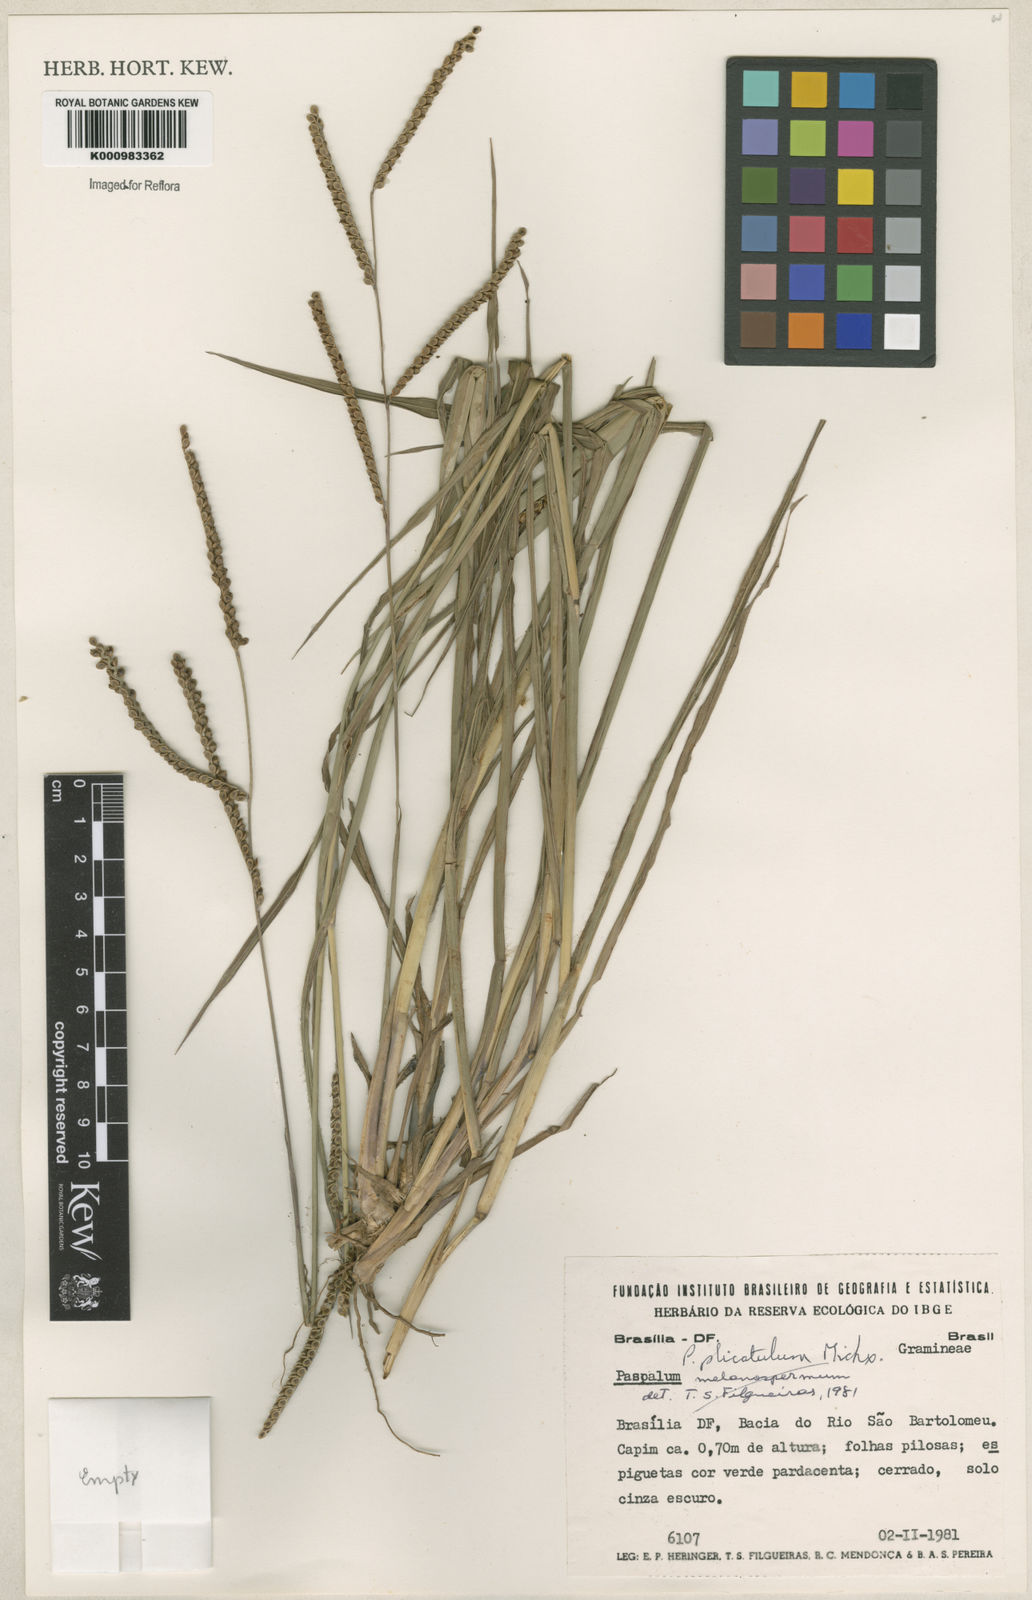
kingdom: Plantae
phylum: Tracheophyta
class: Liliopsida
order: Poales
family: Poaceae
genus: Paspalum
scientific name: Paspalum plicatulum
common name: Top paspalum
